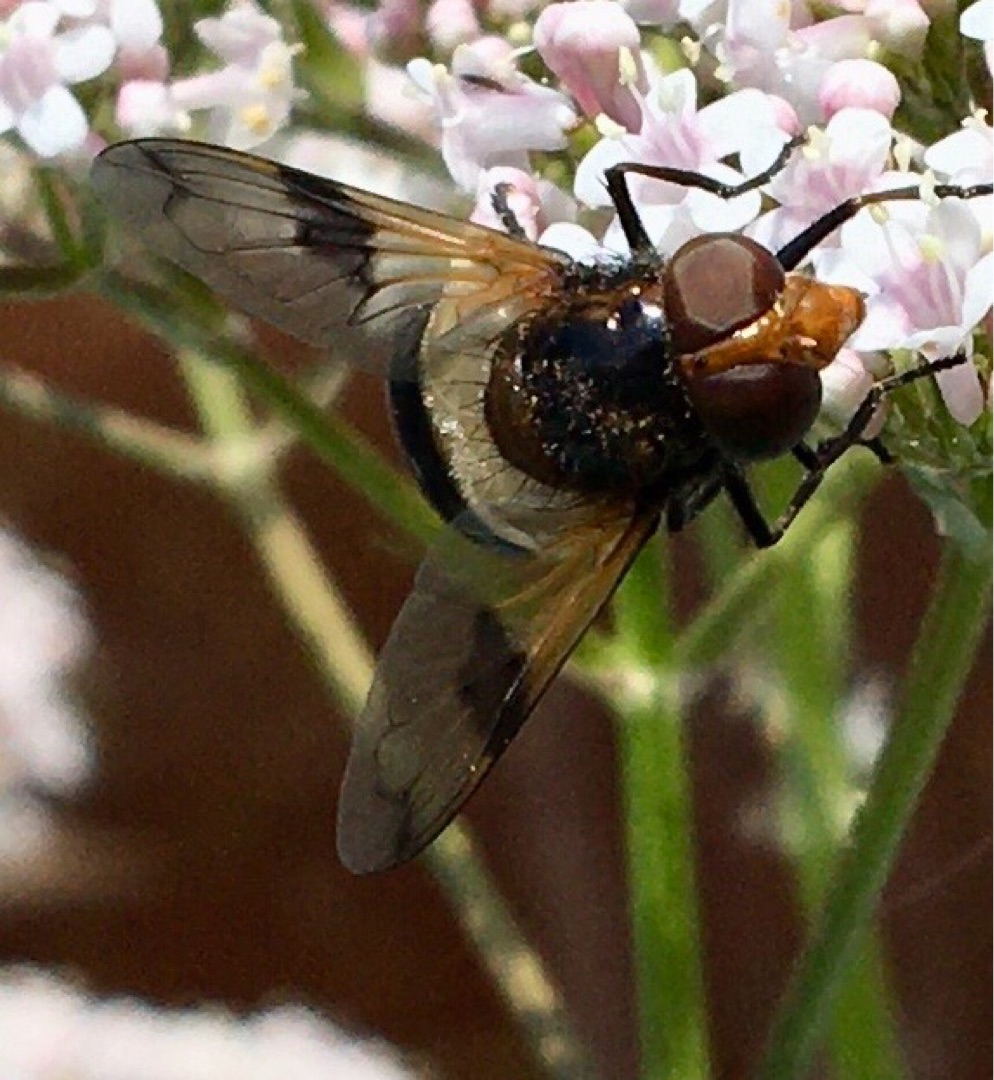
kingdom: Animalia
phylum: Arthropoda
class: Insecta
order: Diptera
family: Syrphidae
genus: Volucella
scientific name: Volucella pellucens
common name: Hvidbåndet humlesvirreflue
